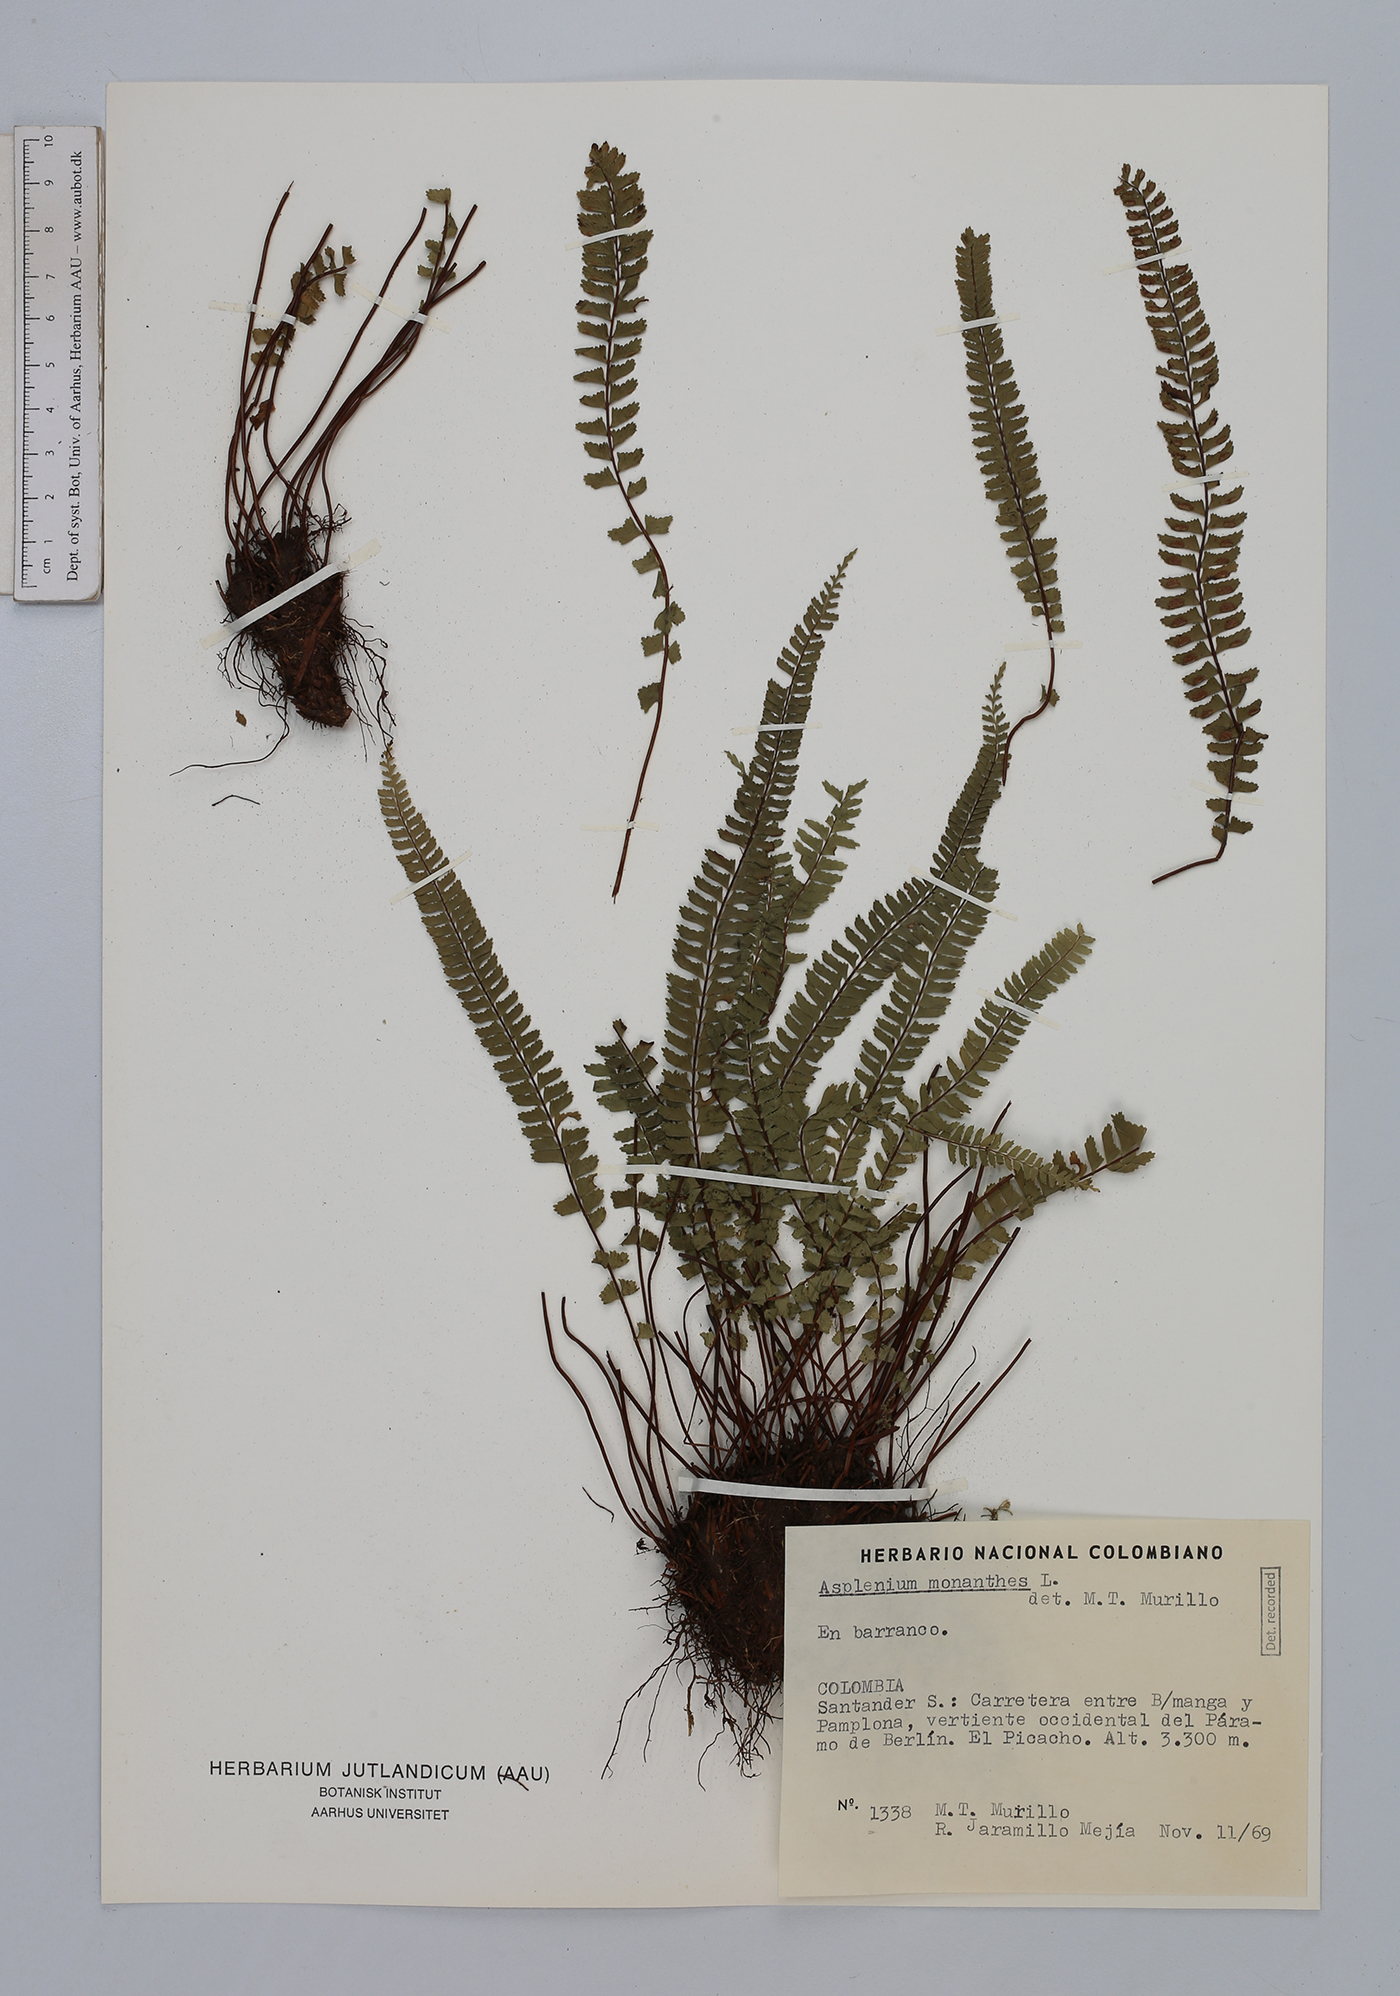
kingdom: Plantae
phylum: Tracheophyta
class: Polypodiopsida
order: Polypodiales
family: Aspleniaceae
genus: Asplenium
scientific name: Asplenium monanthes
